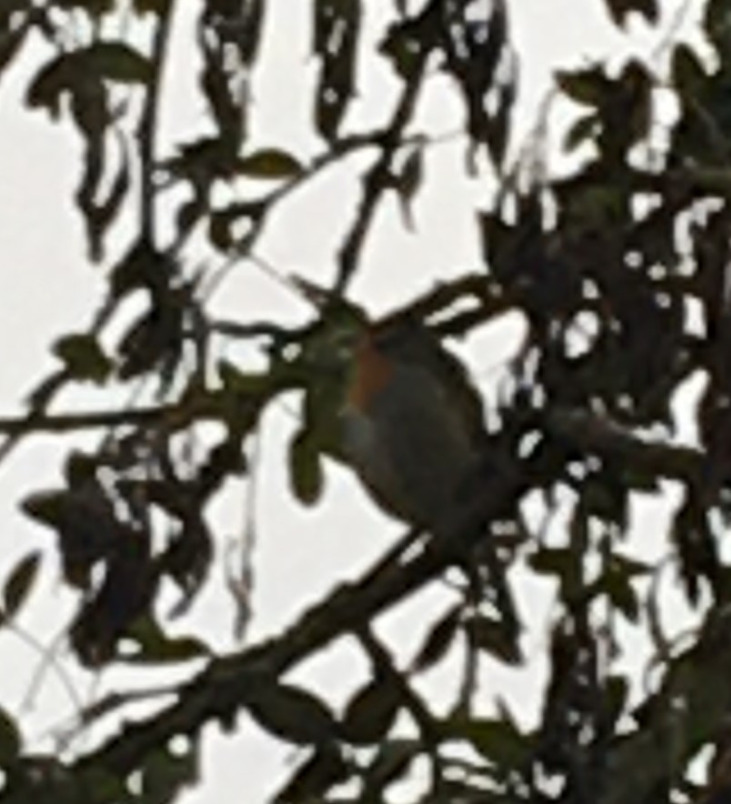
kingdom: Animalia
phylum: Chordata
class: Aves
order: Passeriformes
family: Muscicapidae
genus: Erithacus
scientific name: Erithacus rubecula
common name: Rødhals/rødkælk
